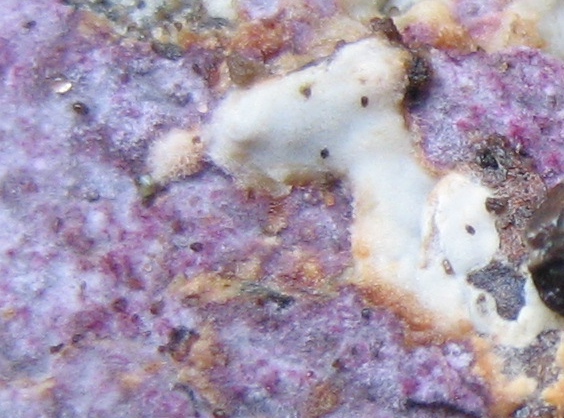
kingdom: Fungi
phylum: Basidiomycota
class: Agaricomycetes
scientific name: Agaricomycetes
